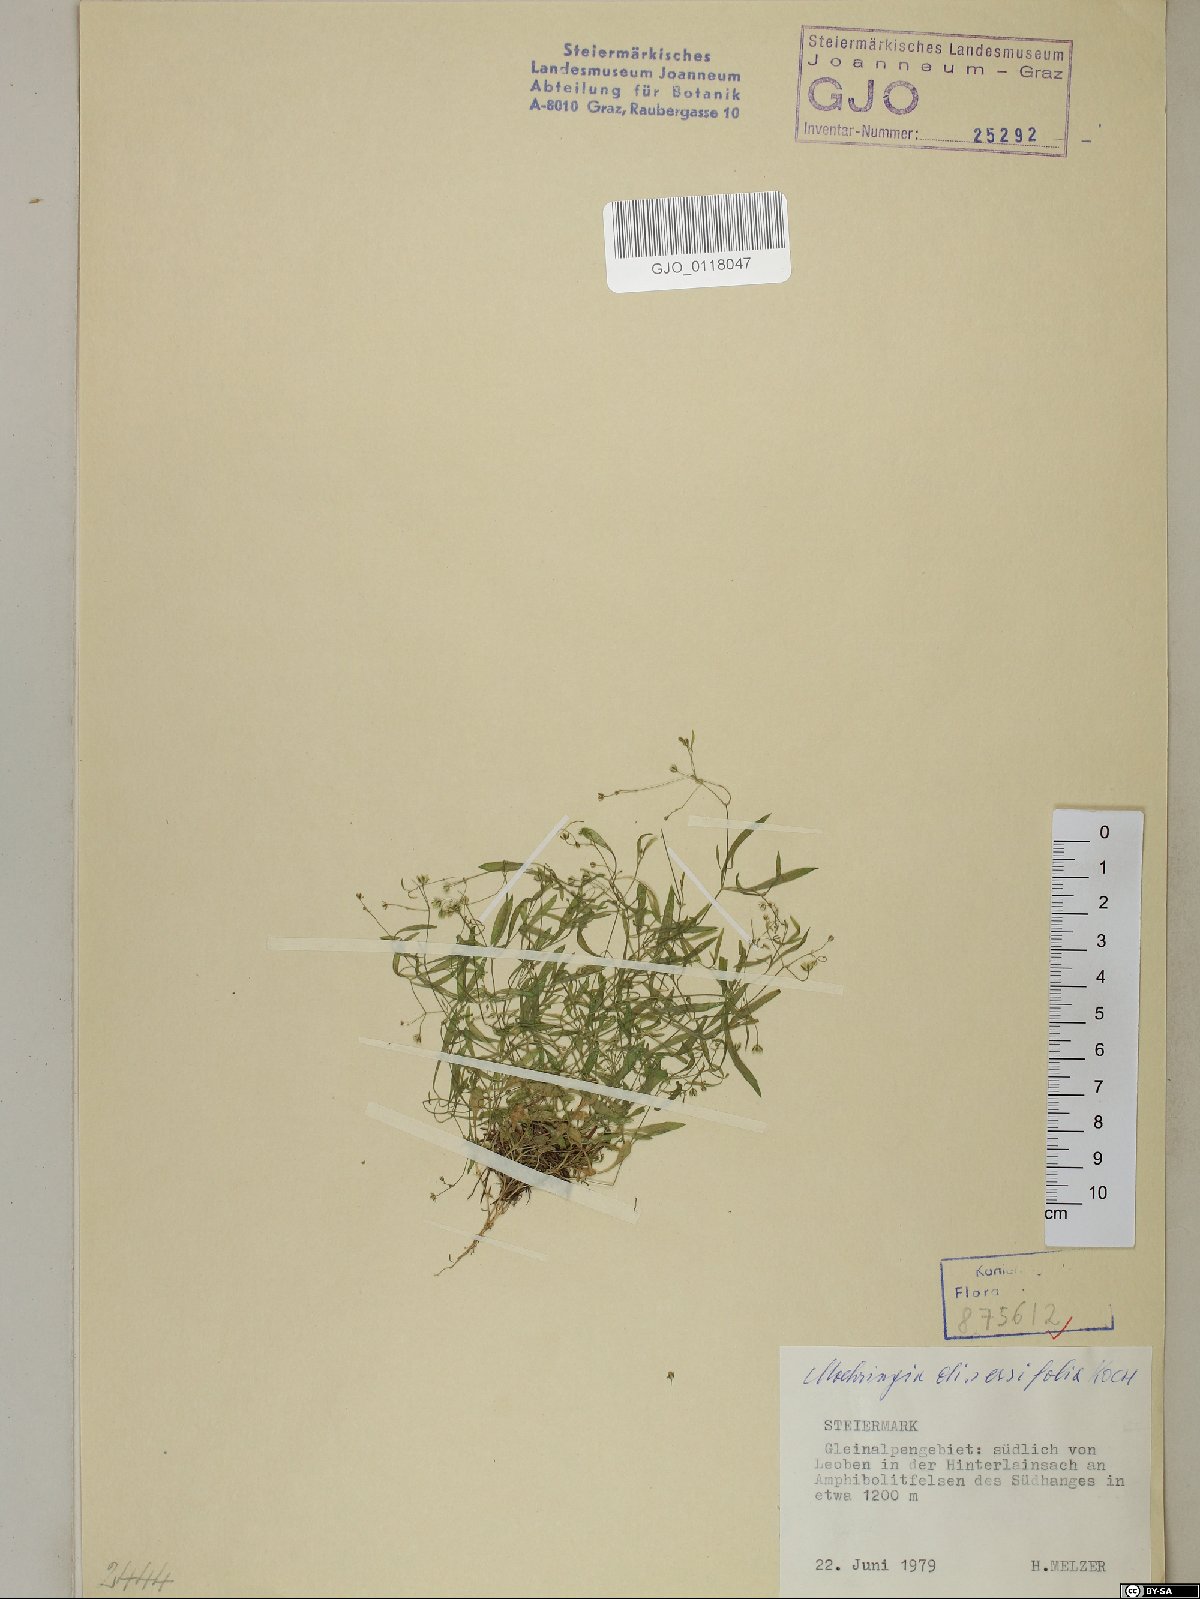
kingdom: Plantae
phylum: Tracheophyta
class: Magnoliopsida
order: Caryophyllales
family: Caryophyllaceae
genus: Moehringia
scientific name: Moehringia diversifolia
